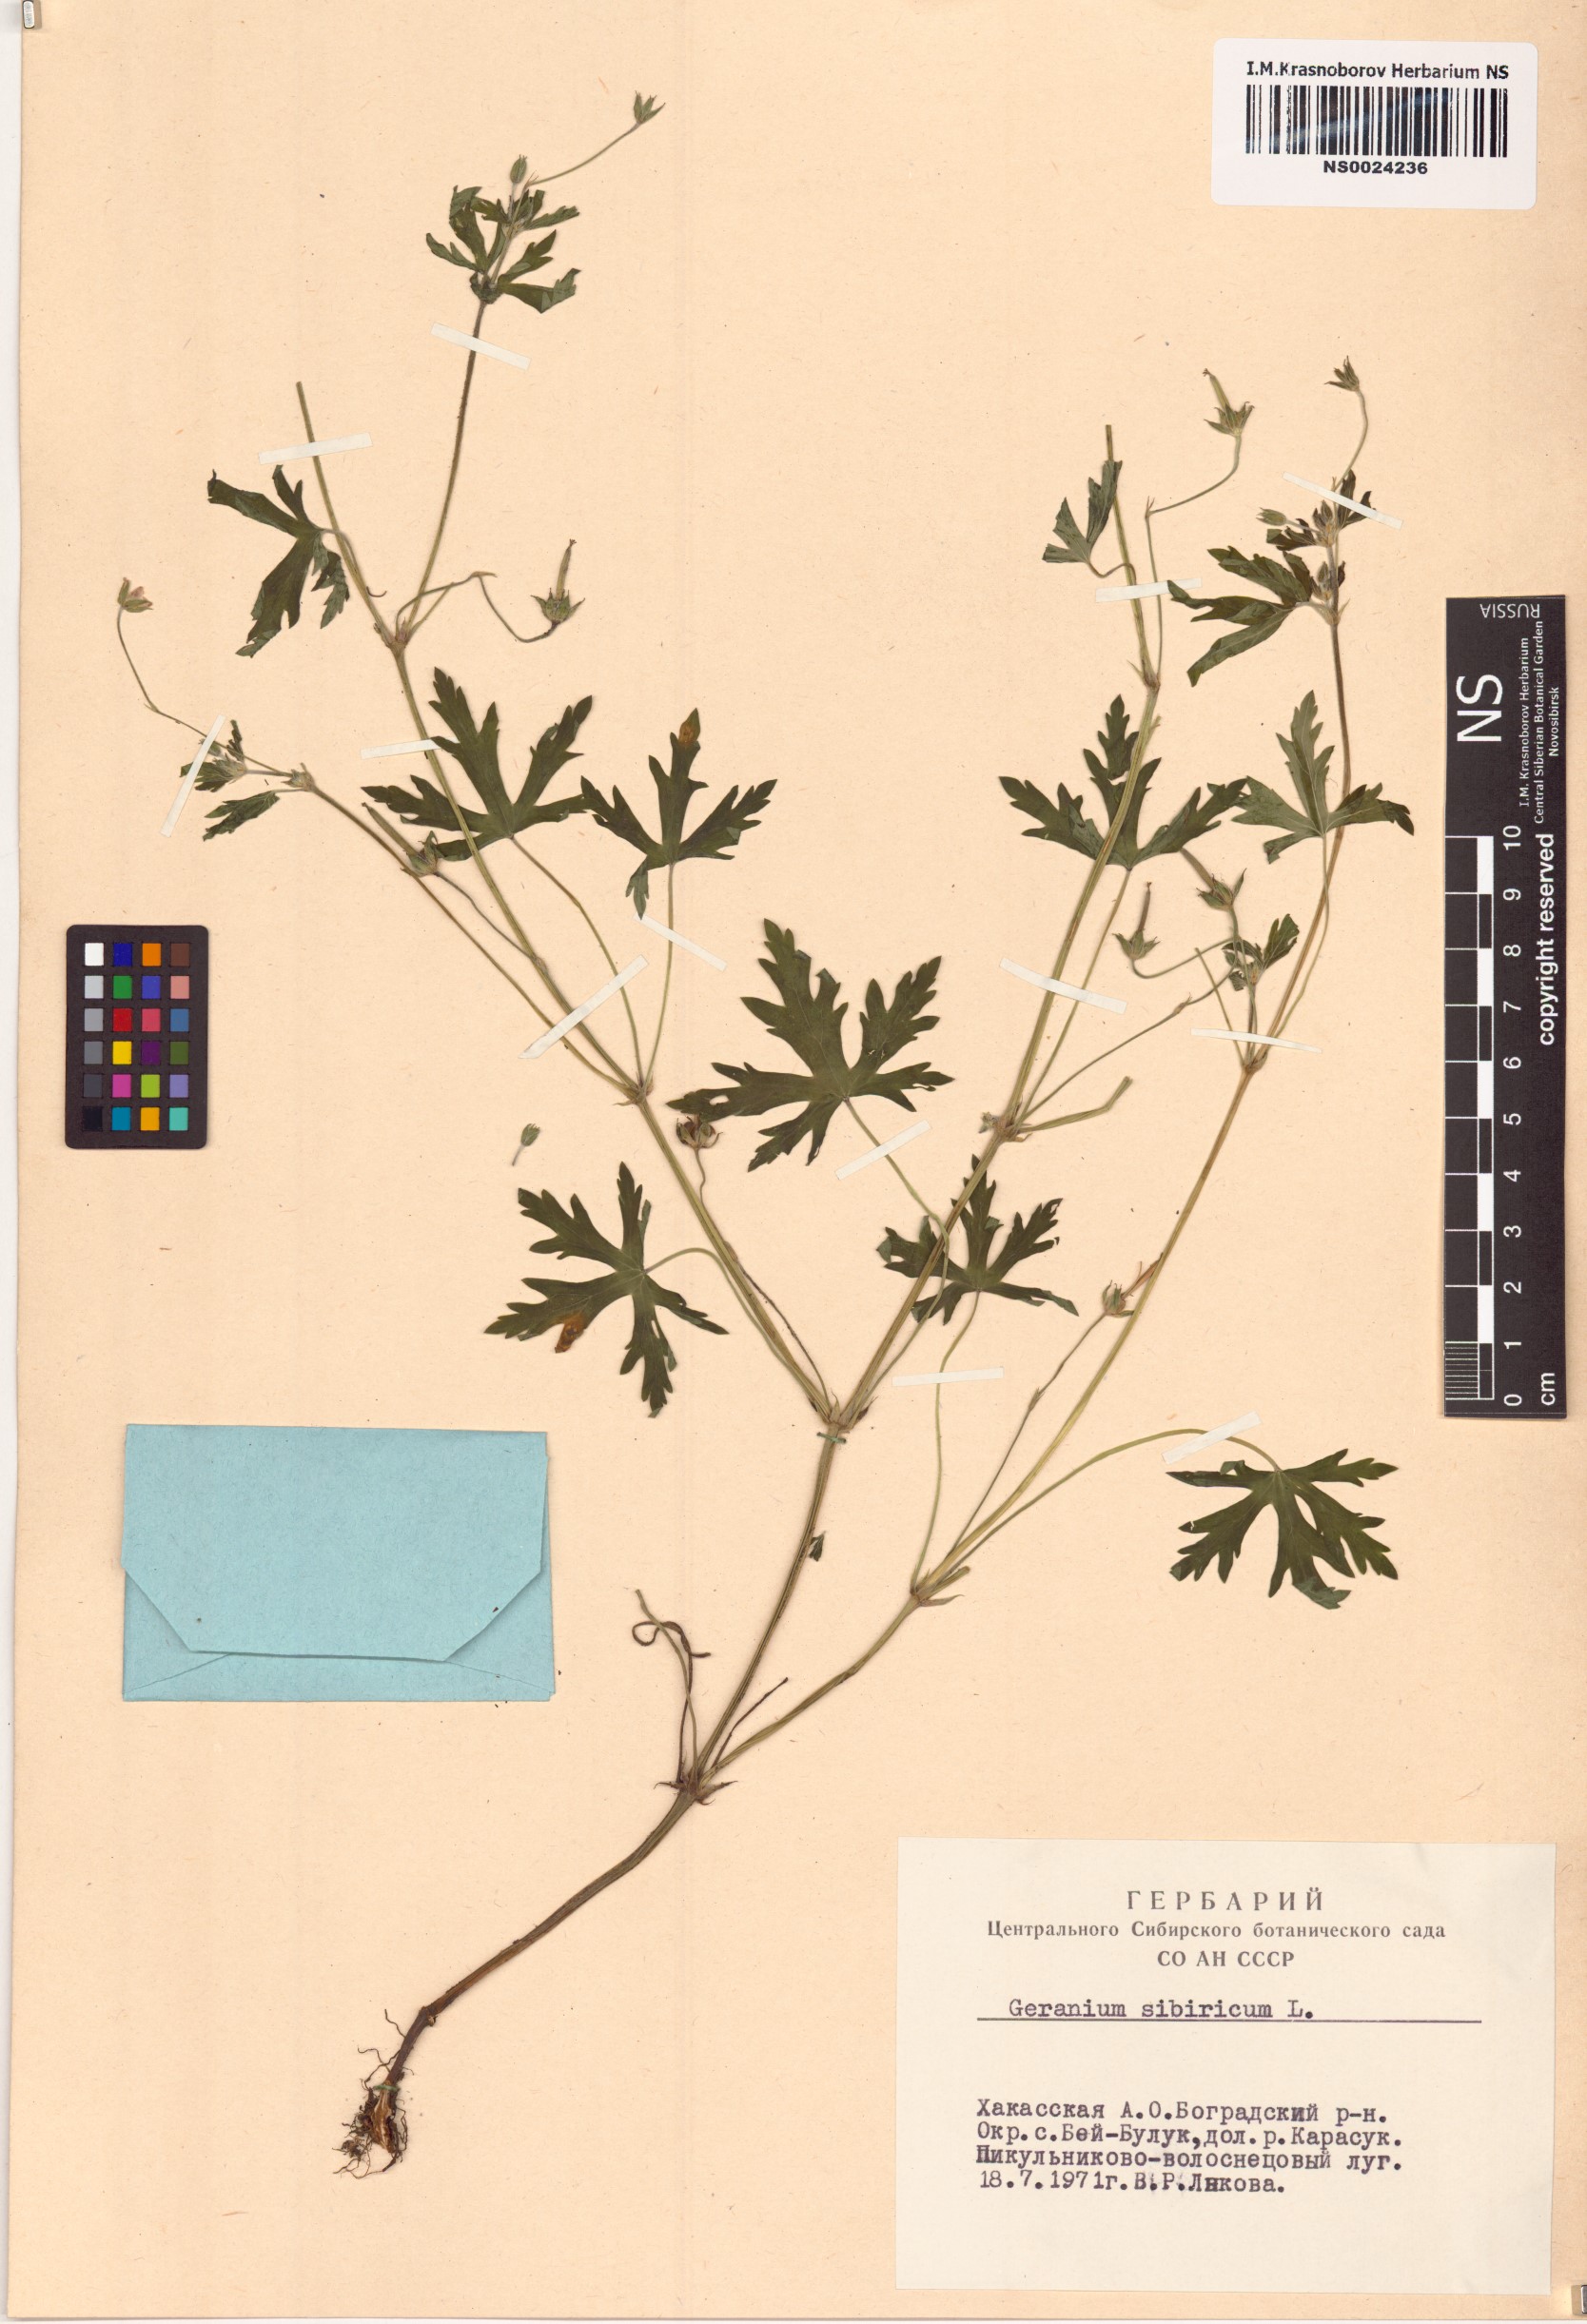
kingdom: Plantae
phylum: Tracheophyta
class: Magnoliopsida
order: Geraniales
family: Geraniaceae
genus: Geranium
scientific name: Geranium sibiricum
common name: Siberian crane's-bill
